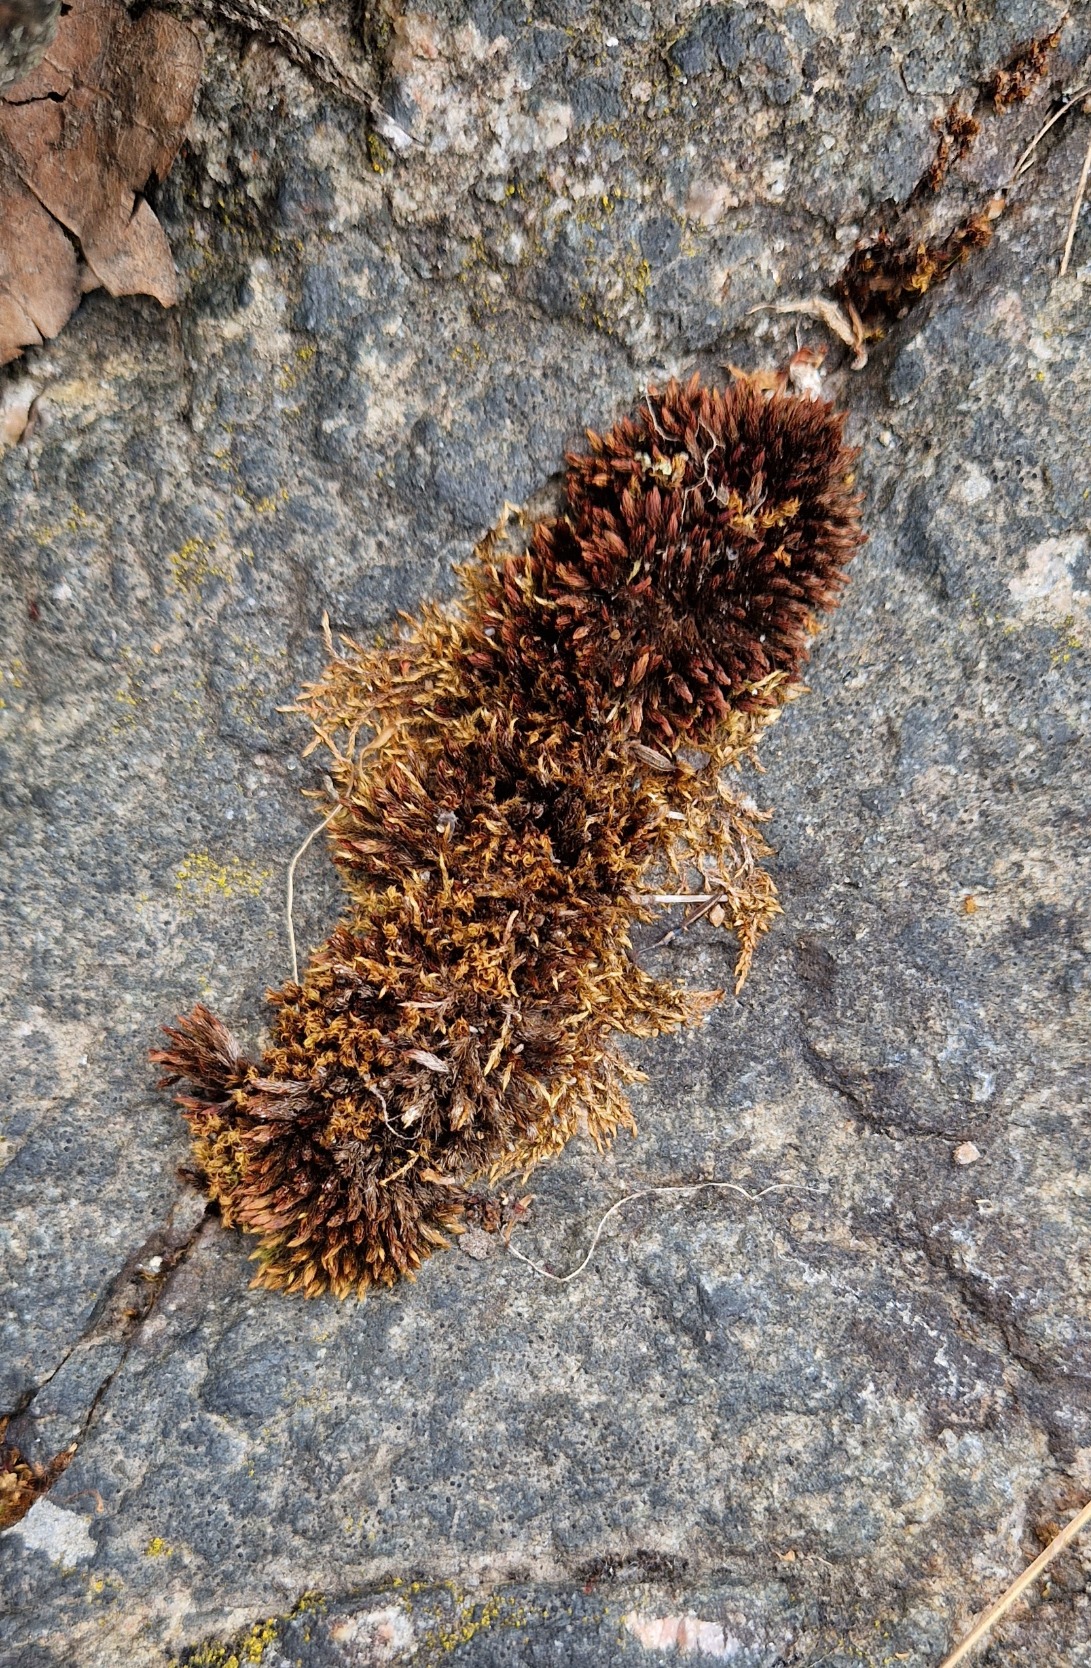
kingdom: Plantae
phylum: Bryophyta
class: Bryopsida
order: Bryales
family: Bryaceae
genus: Imbribryum
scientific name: Imbribryum alpinum
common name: Skærgårds-bryum
